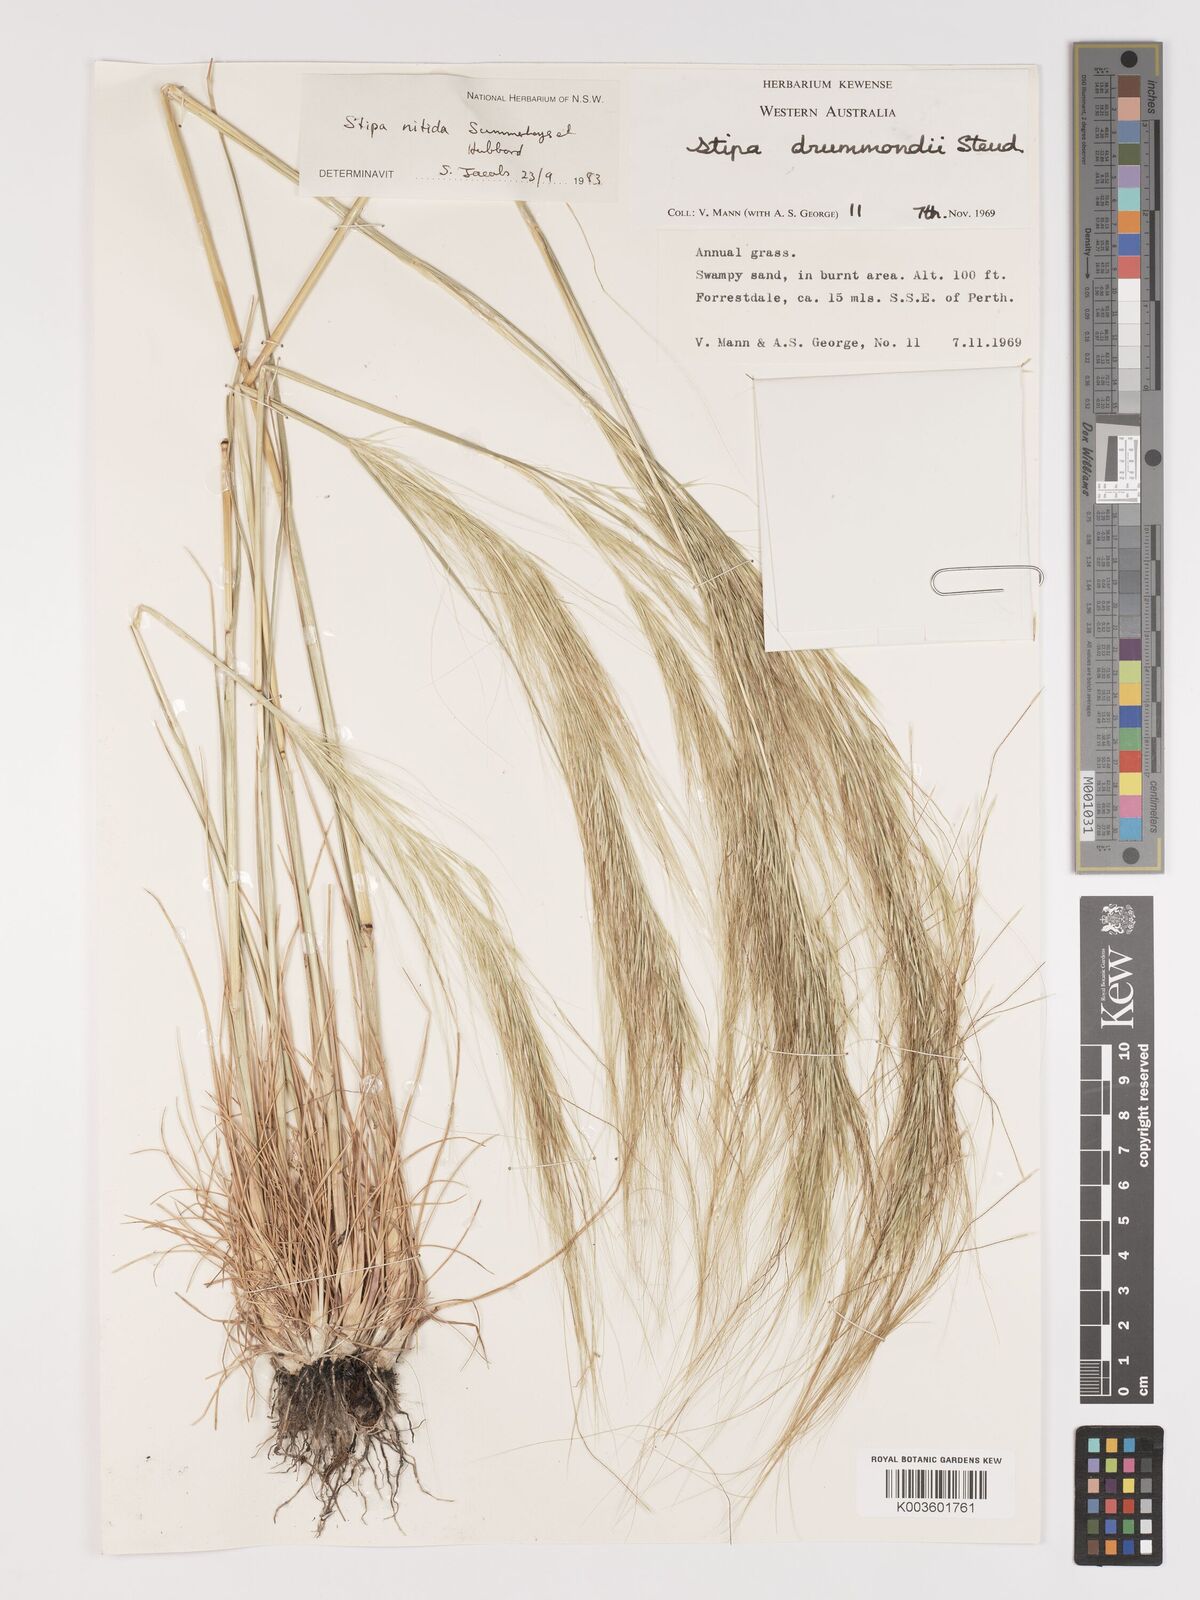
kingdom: Plantae
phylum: Tracheophyta
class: Liliopsida
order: Poales
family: Poaceae
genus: Austrostipa
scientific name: Austrostipa nitida
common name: Balcarra grass
